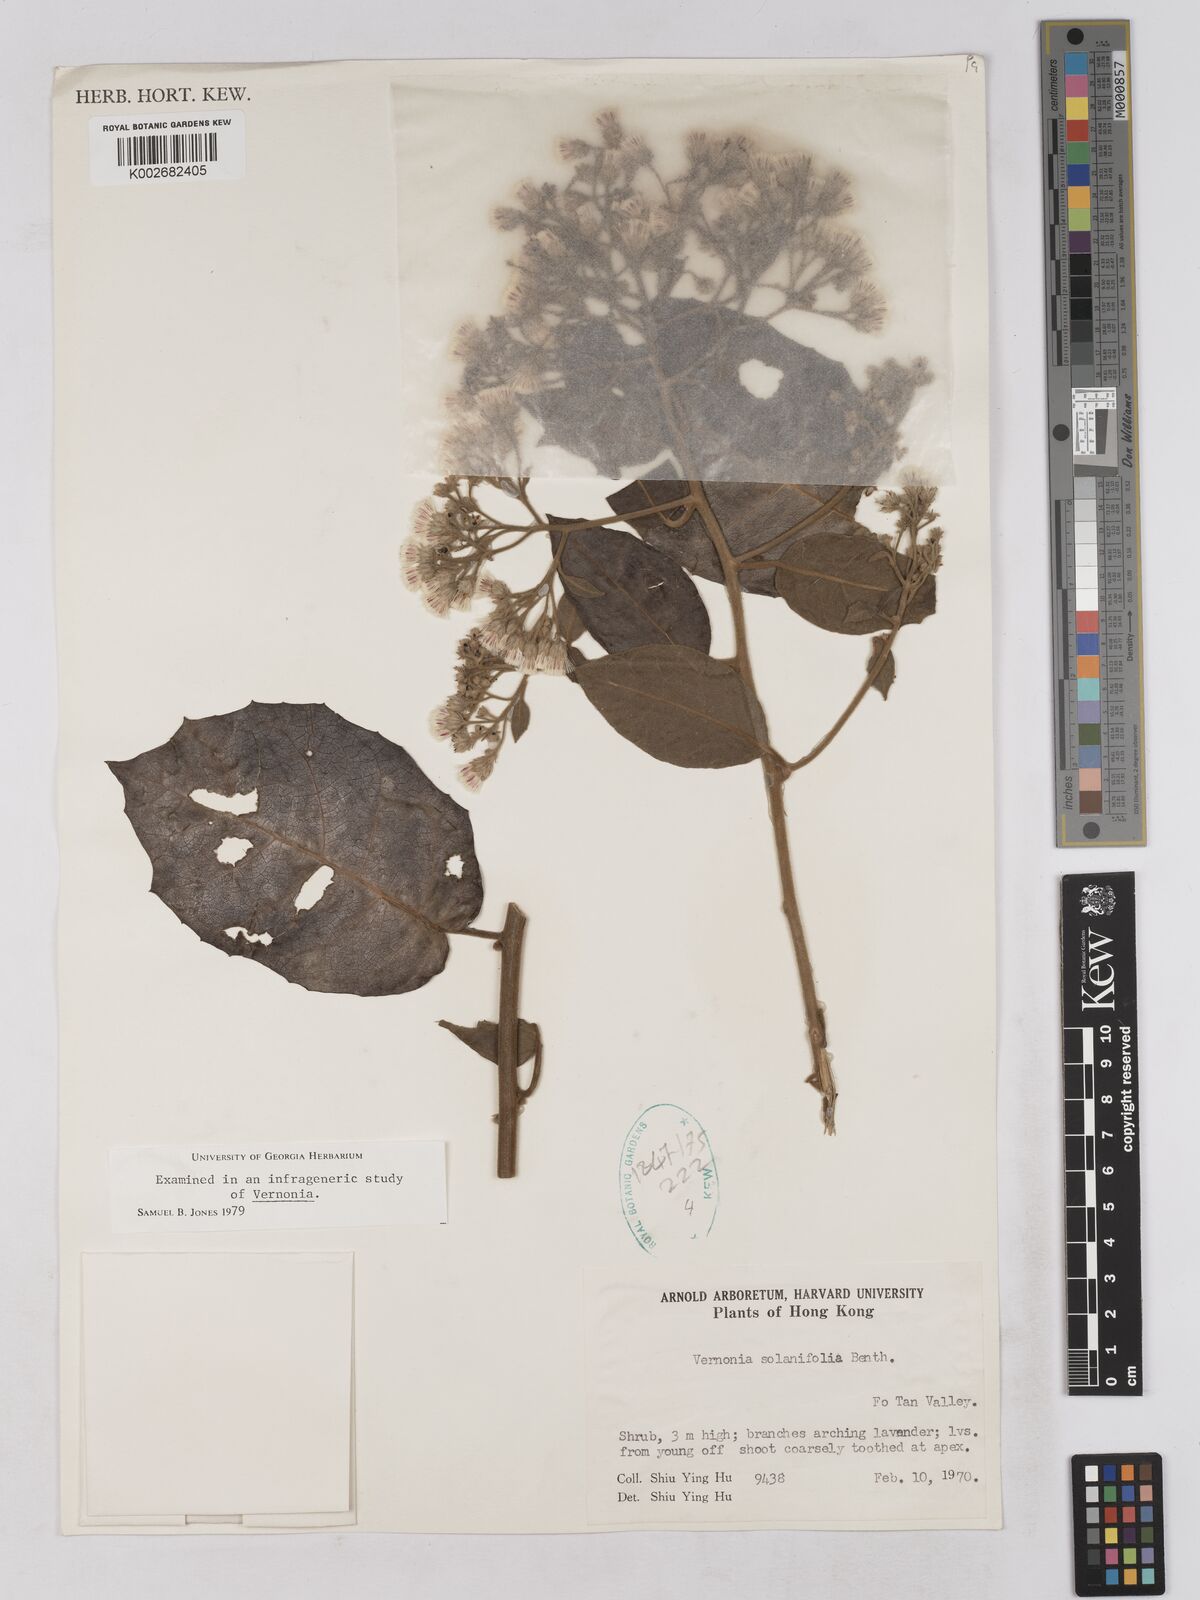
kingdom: Plantae
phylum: Tracheophyta
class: Magnoliopsida
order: Asterales
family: Asteraceae
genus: Strobocalyx
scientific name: Strobocalyx solanifolia
